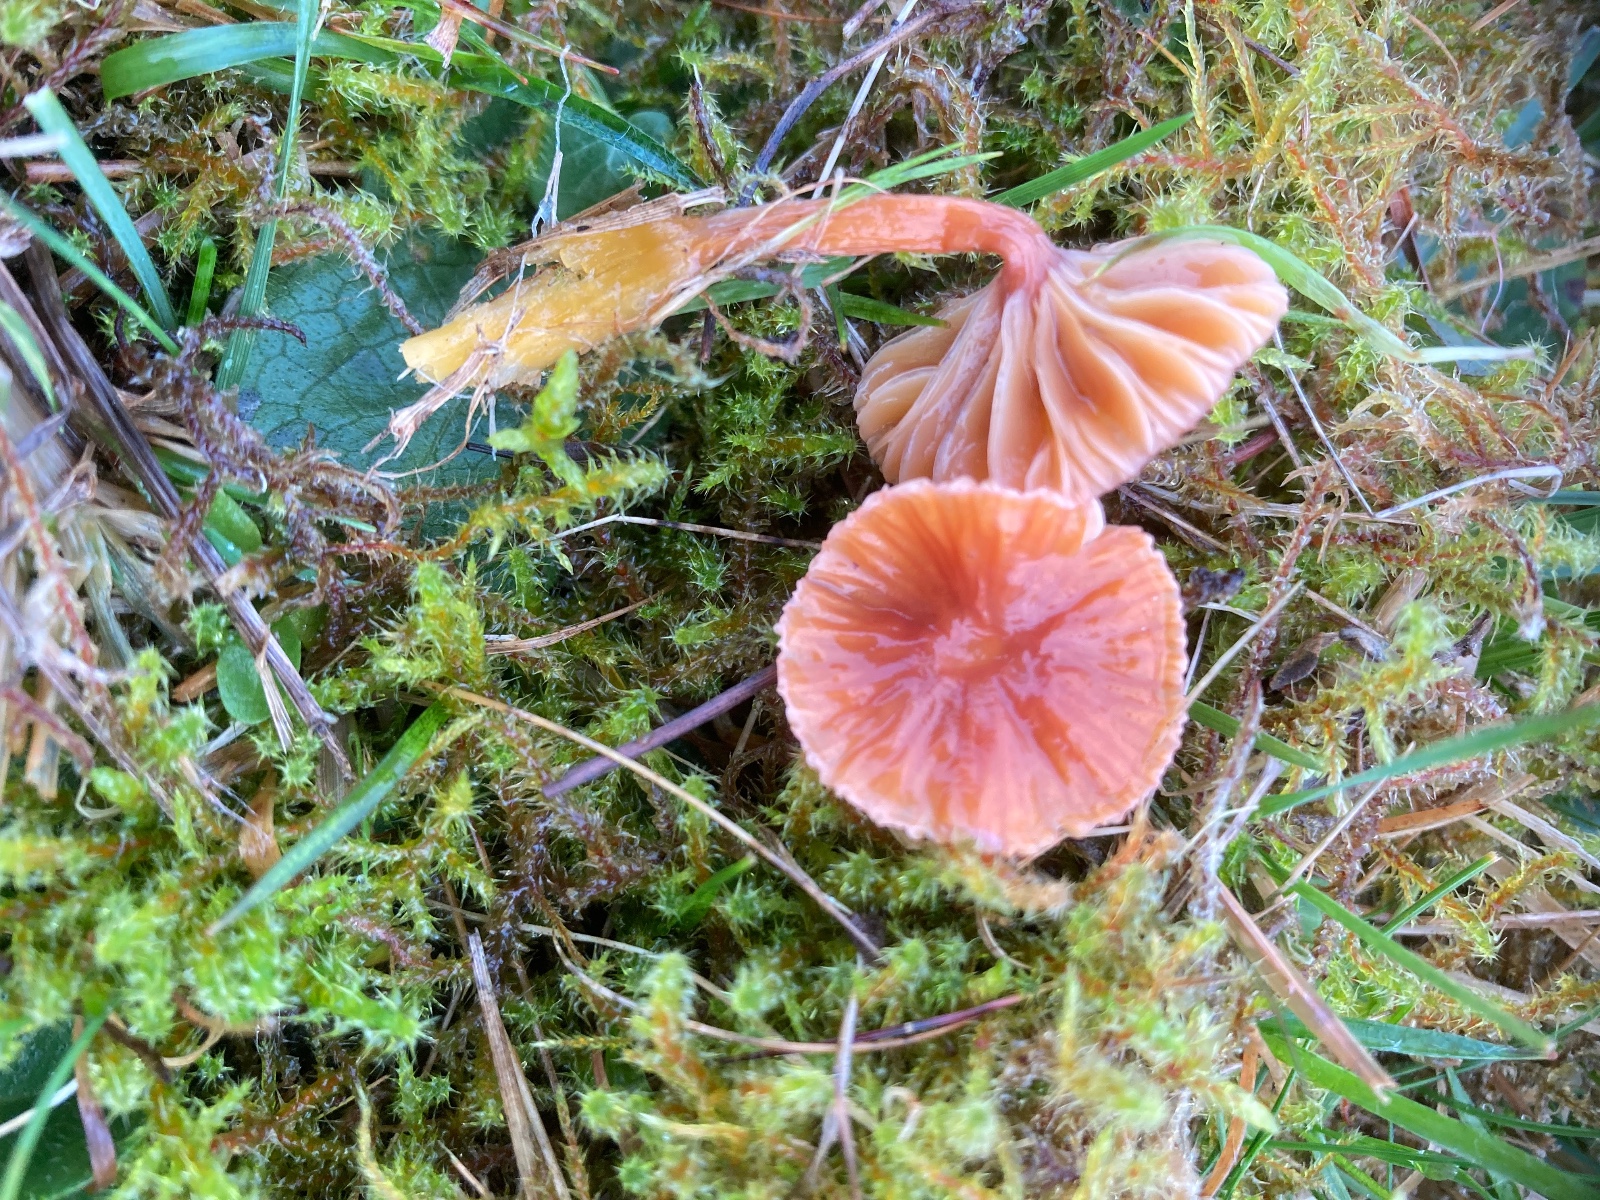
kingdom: Fungi
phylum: Basidiomycota
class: Agaricomycetes
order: Agaricales
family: Hygrophoraceae
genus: Gliophorus
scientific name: Gliophorus laetus
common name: brusk-vokshat
